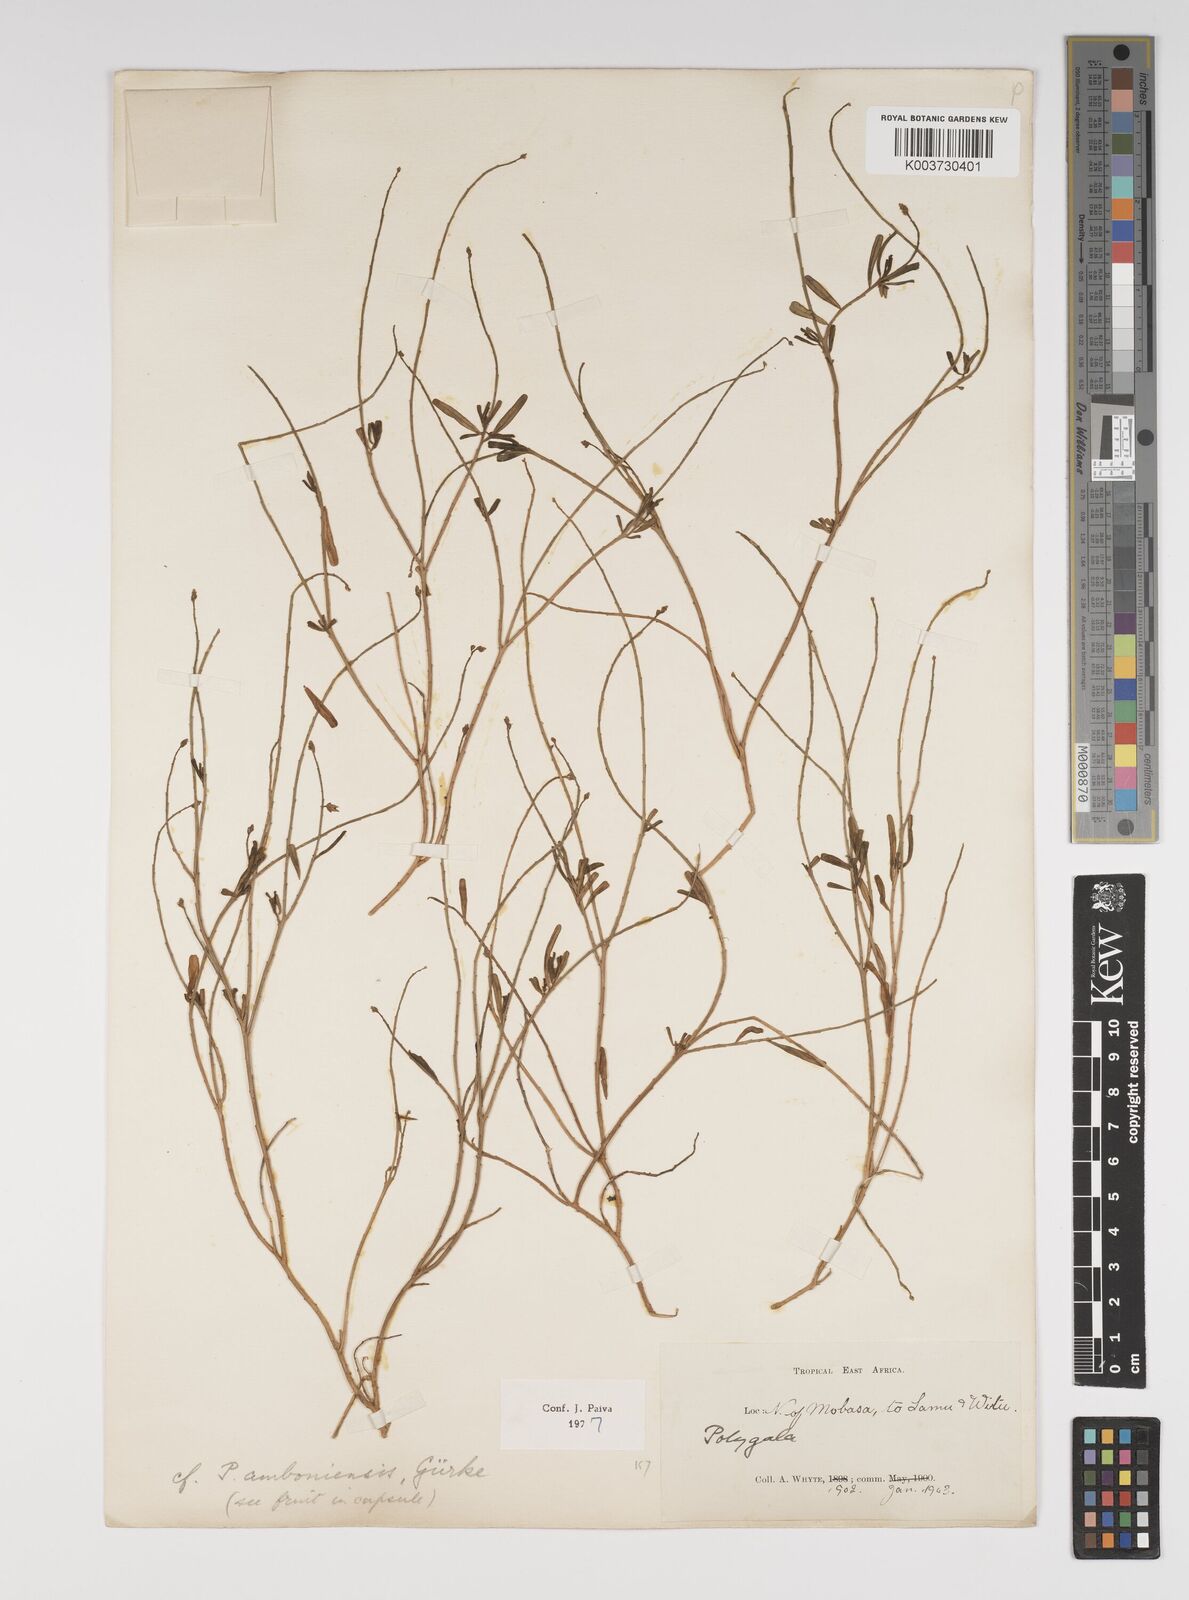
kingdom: Plantae
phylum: Tracheophyta
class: Magnoliopsida
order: Fabales
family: Polygalaceae
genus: Polygala
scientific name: Polygala amboniensis
